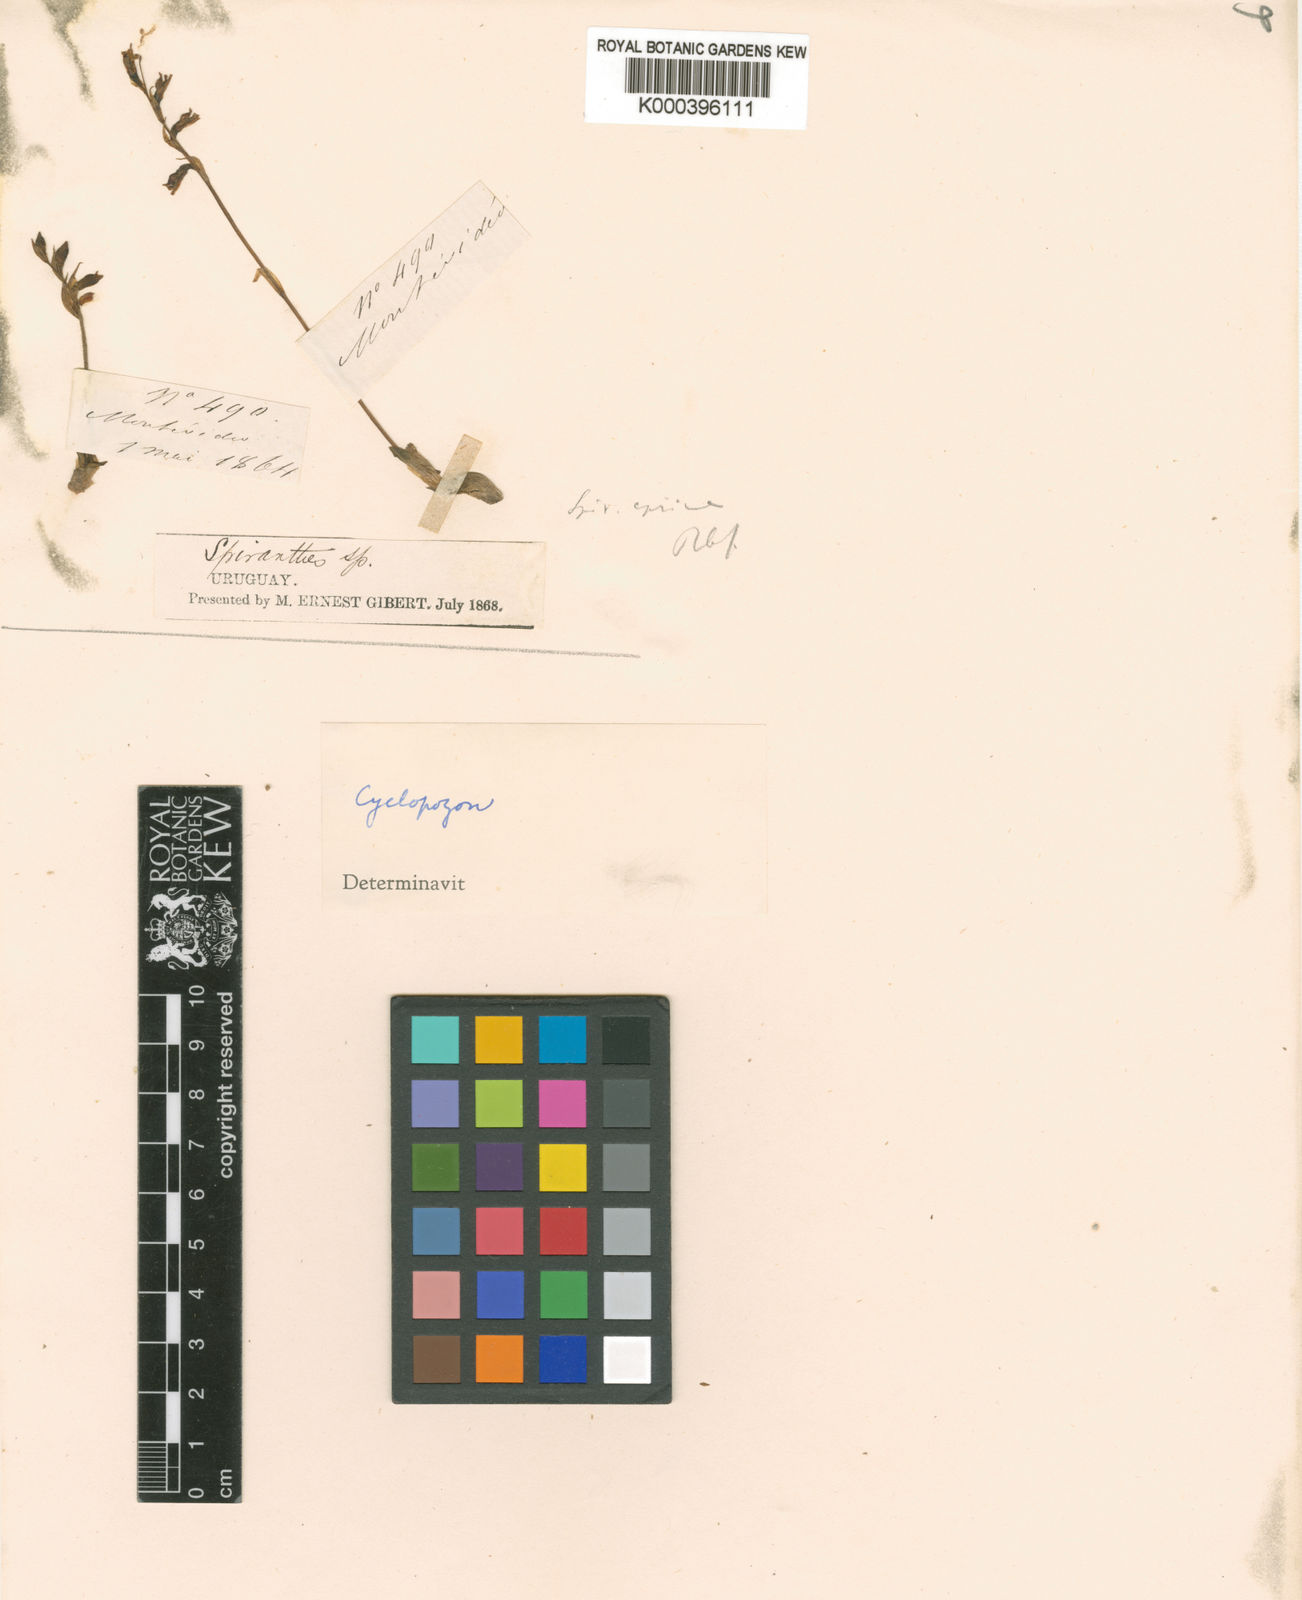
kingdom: Plantae
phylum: Tracheophyta
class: Liliopsida
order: Asparagales
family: Orchidaceae
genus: Cyclopogon
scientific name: Cyclopogon apricus
